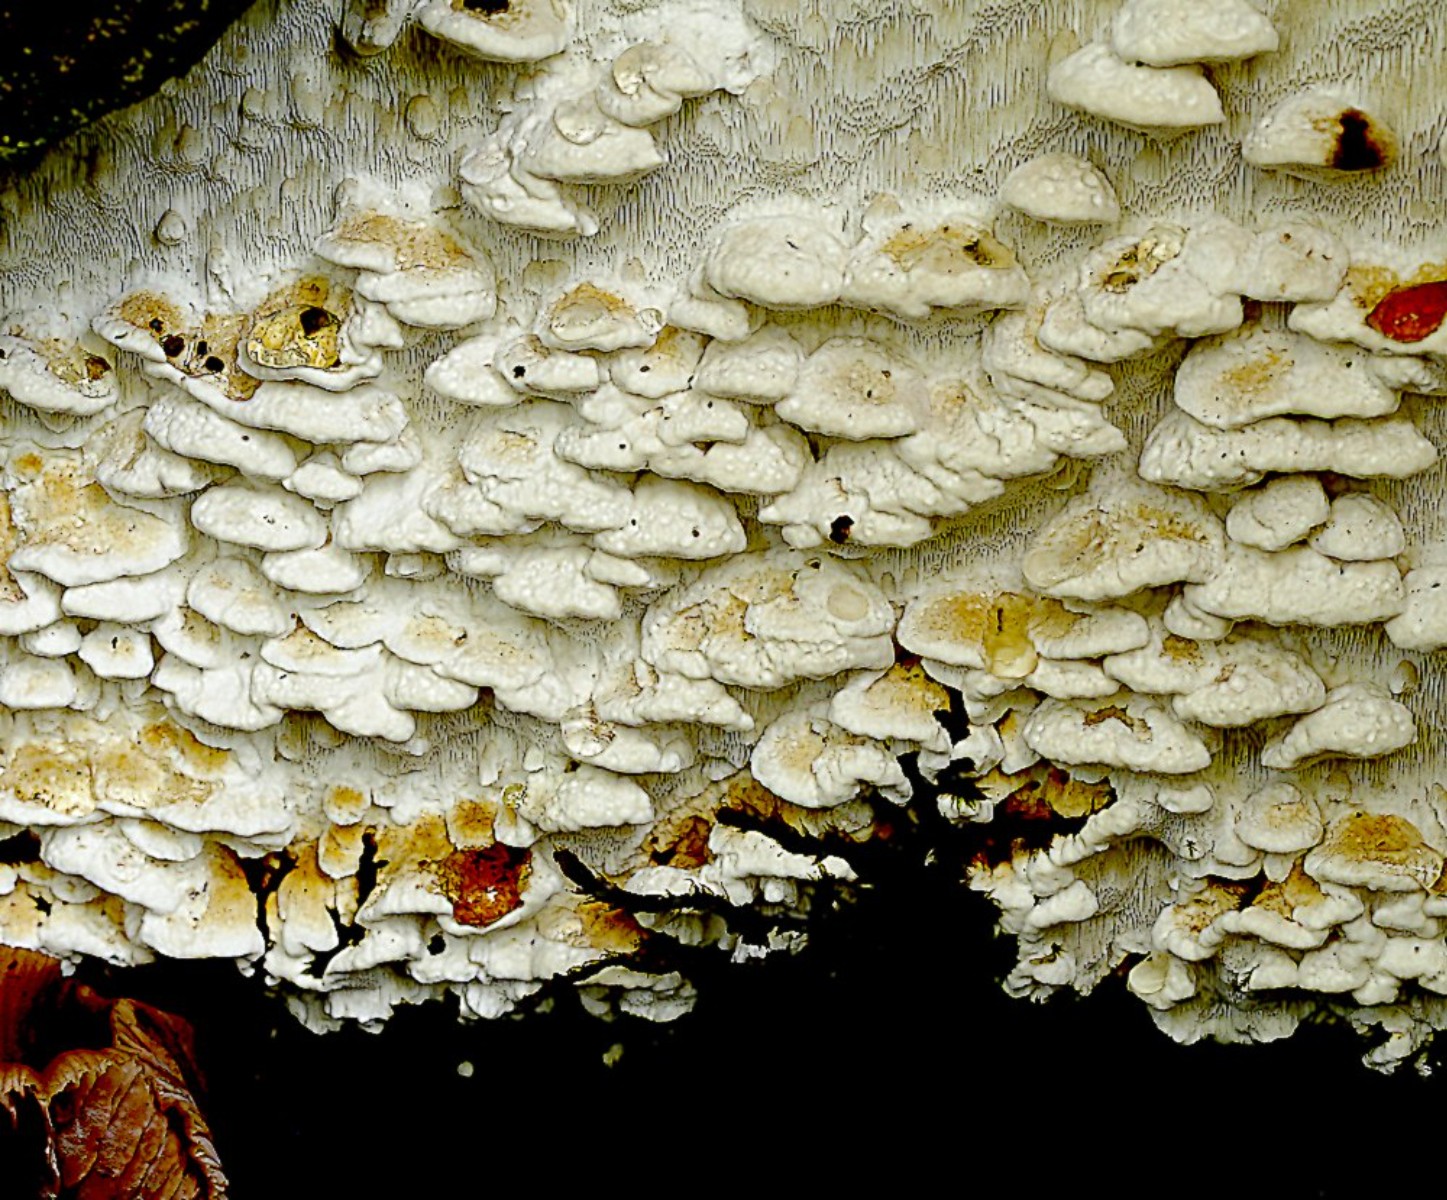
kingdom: Fungi
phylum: Basidiomycota
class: Agaricomycetes
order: Polyporales
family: Fomitopsidaceae
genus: Daedalea
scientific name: Daedalea xantha
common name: gul sejporesvamp
